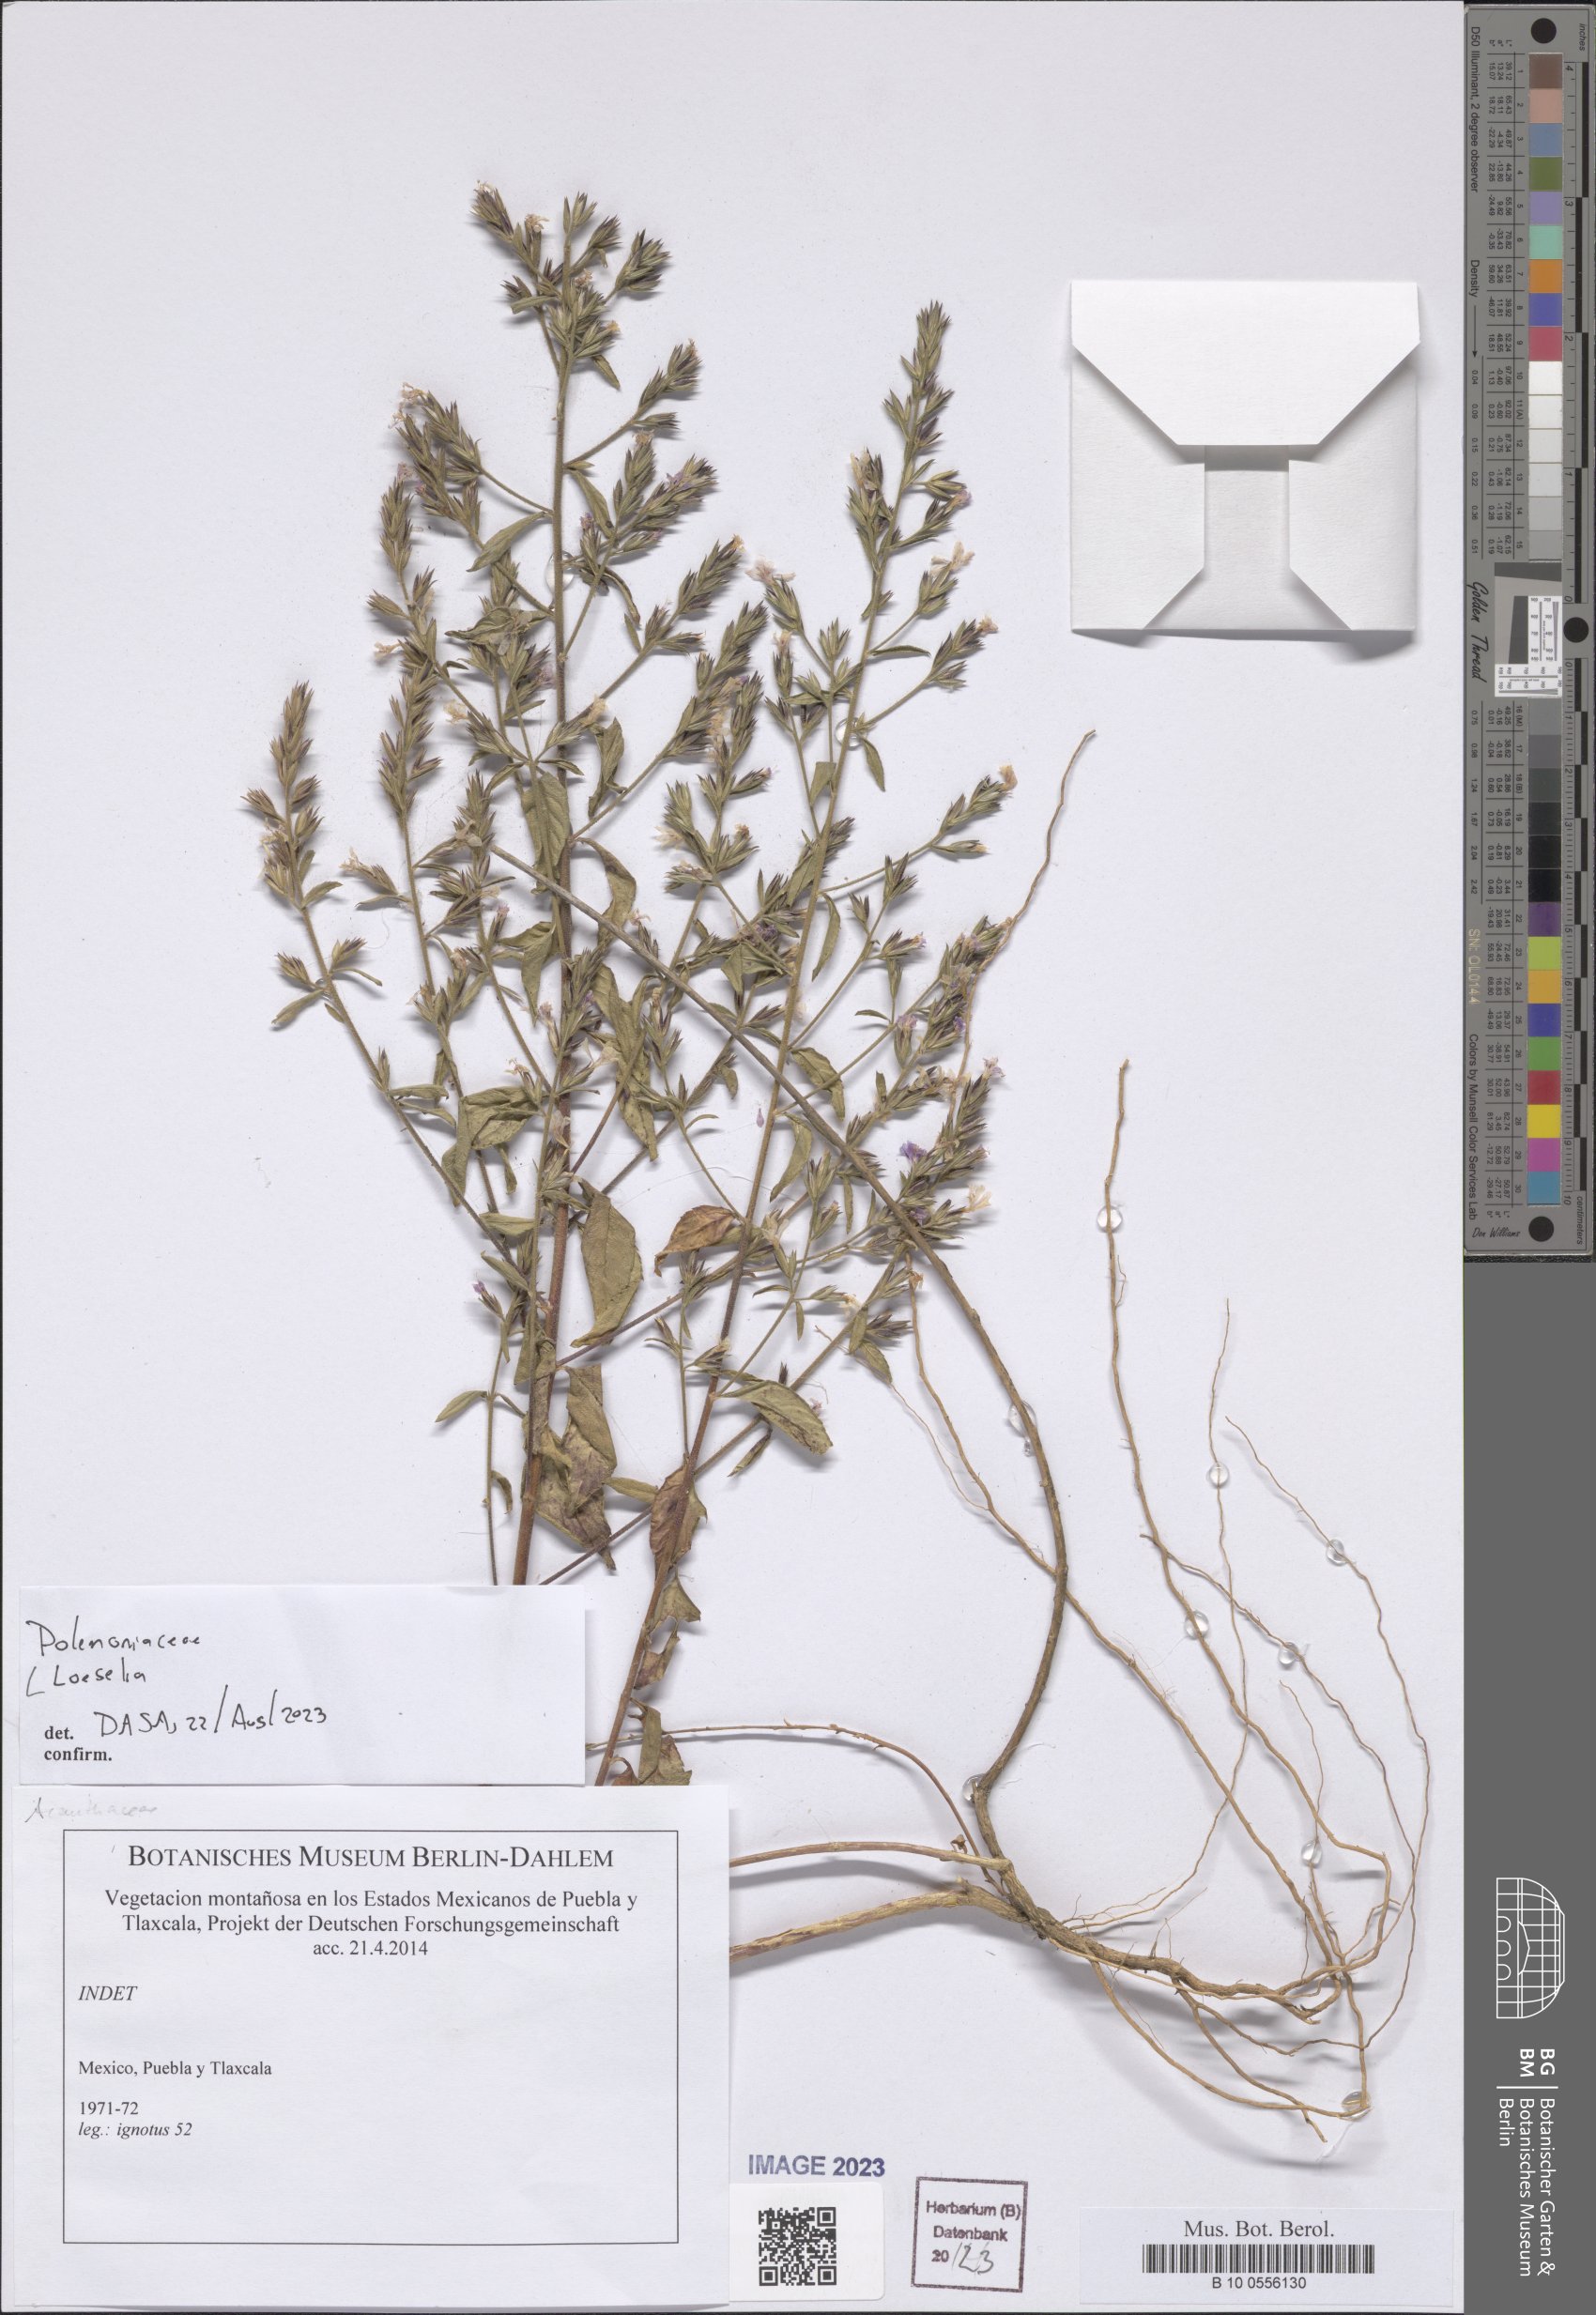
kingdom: Plantae
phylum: Tracheophyta
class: Magnoliopsida
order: Ericales
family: Polemoniaceae
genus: Loeselia
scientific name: Loeselia
